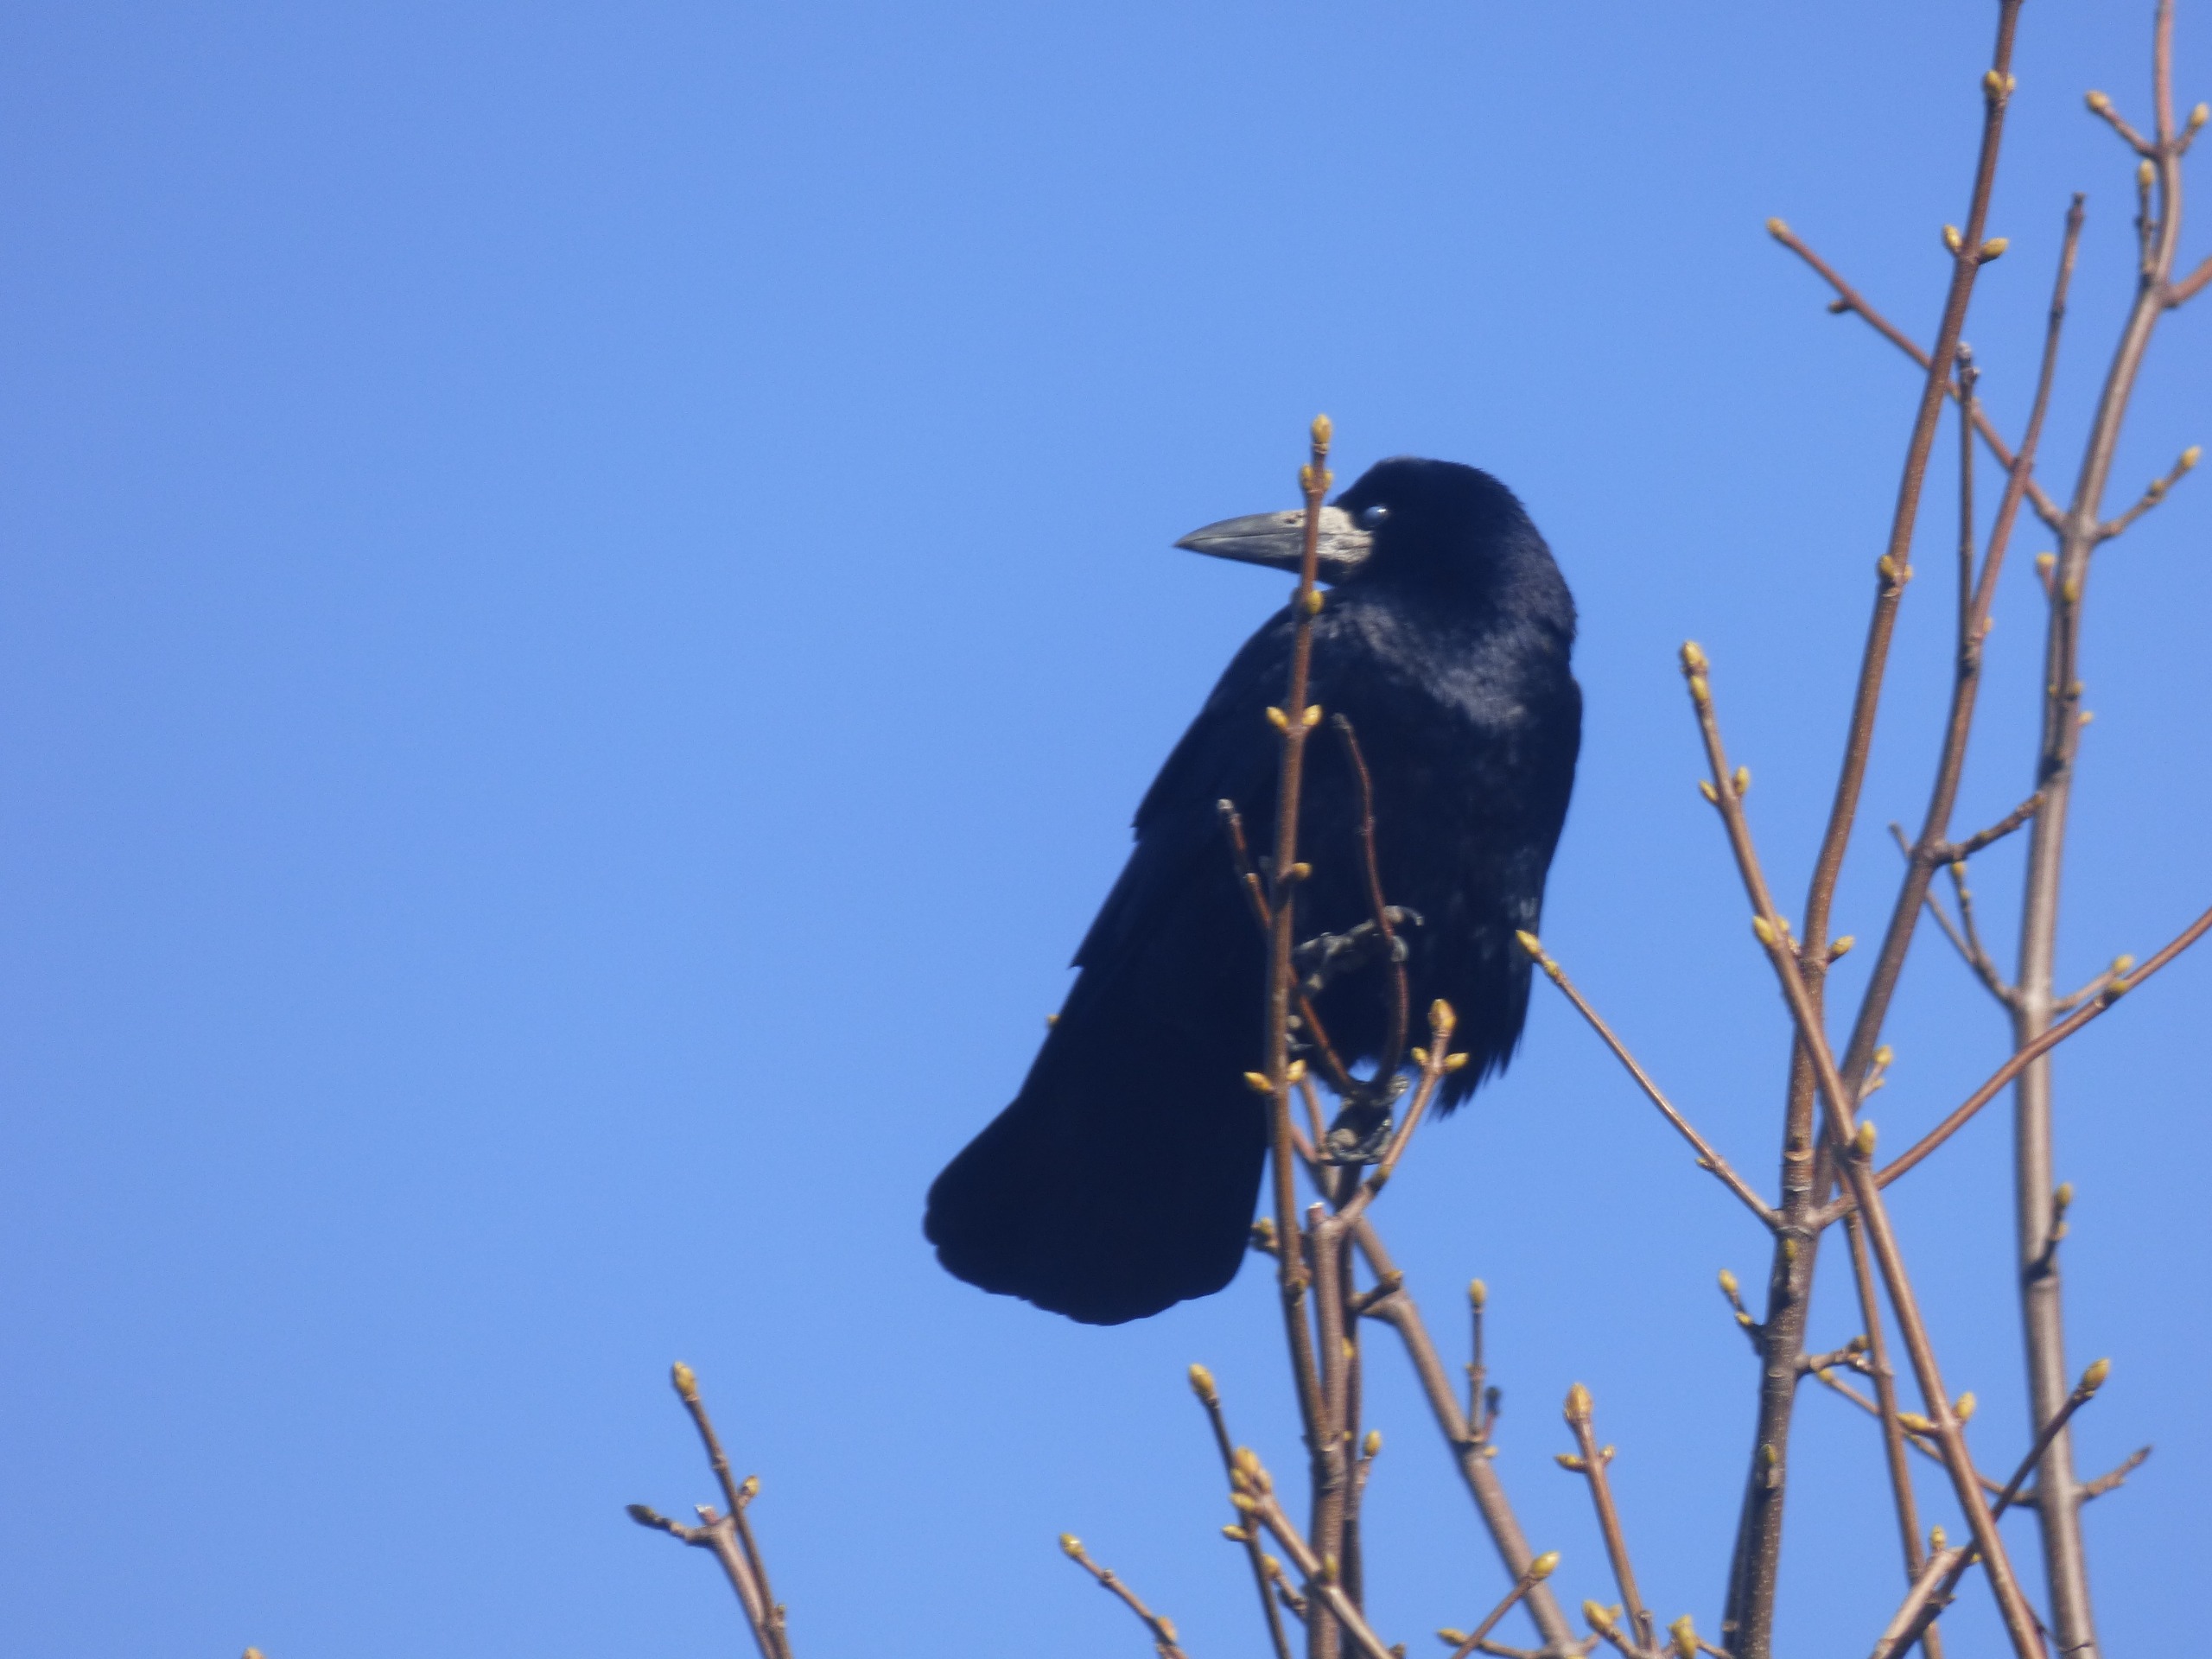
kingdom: Animalia
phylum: Chordata
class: Aves
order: Passeriformes
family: Corvidae
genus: Corvus
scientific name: Corvus frugilegus
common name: Råge
